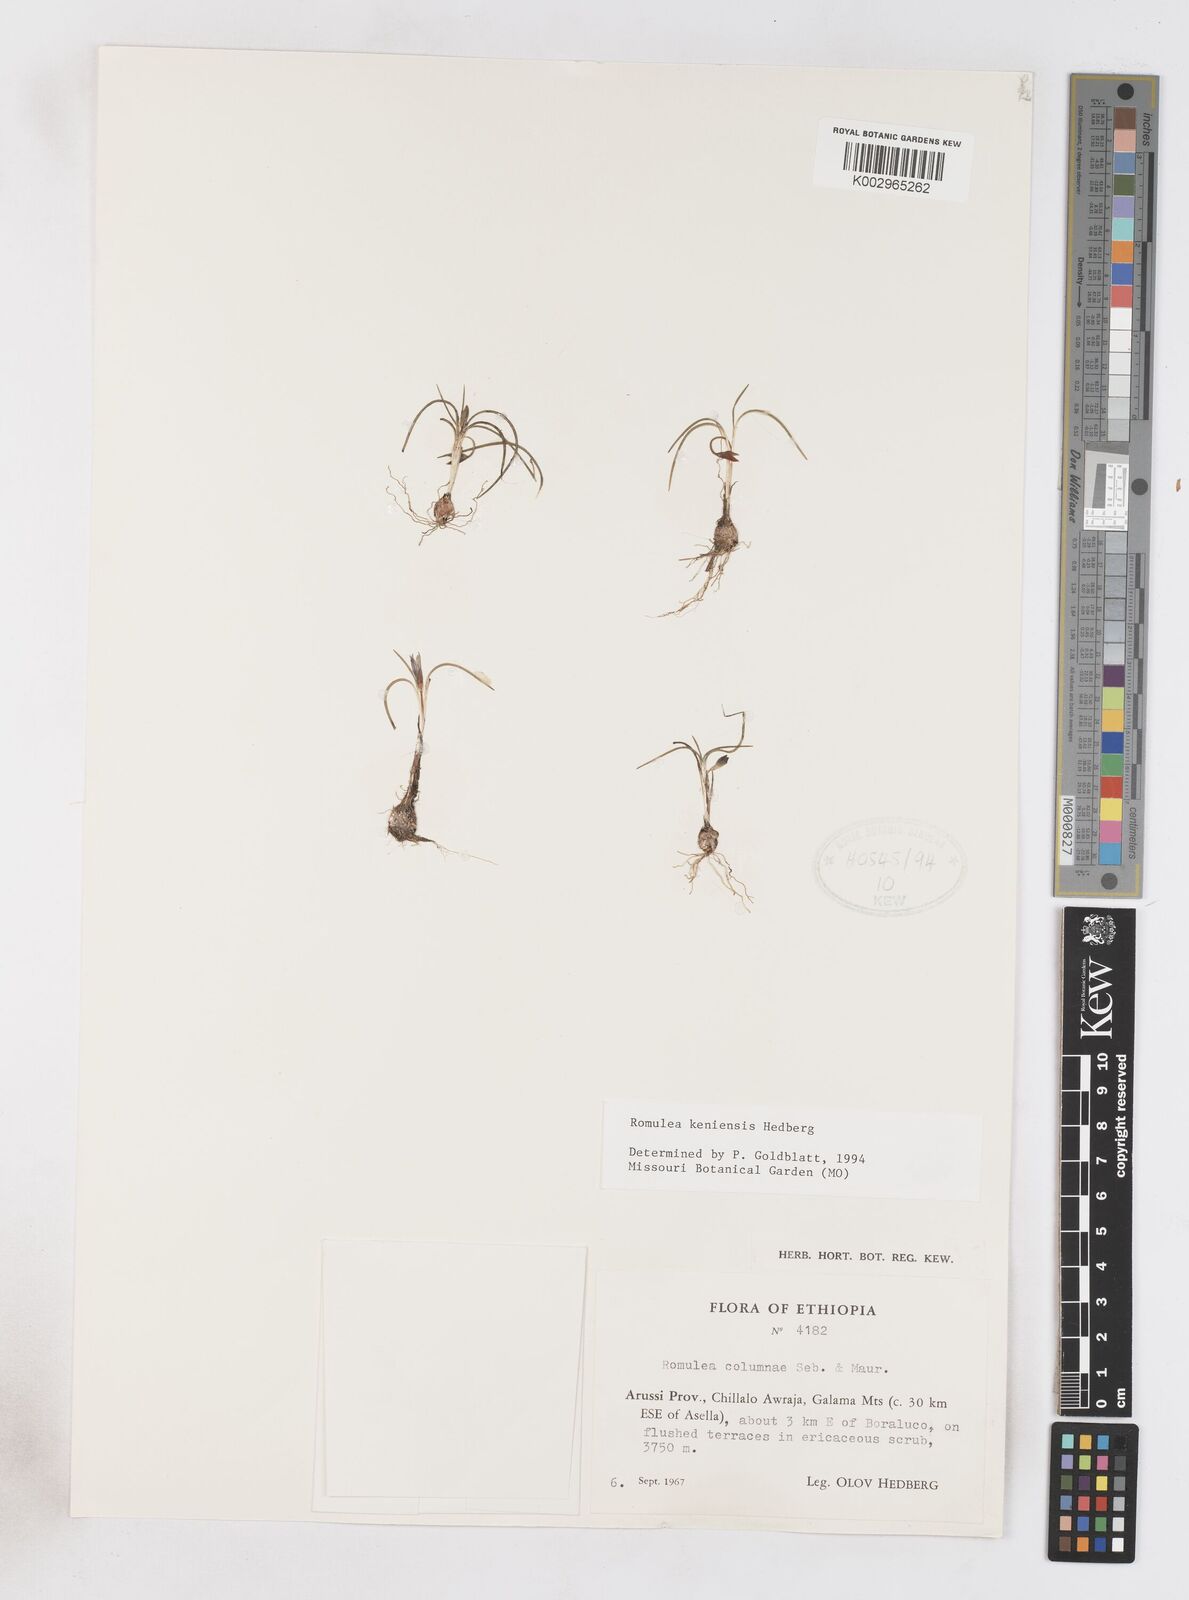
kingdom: Plantae
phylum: Tracheophyta
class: Liliopsida
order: Asparagales
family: Iridaceae
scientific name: Iridaceae
